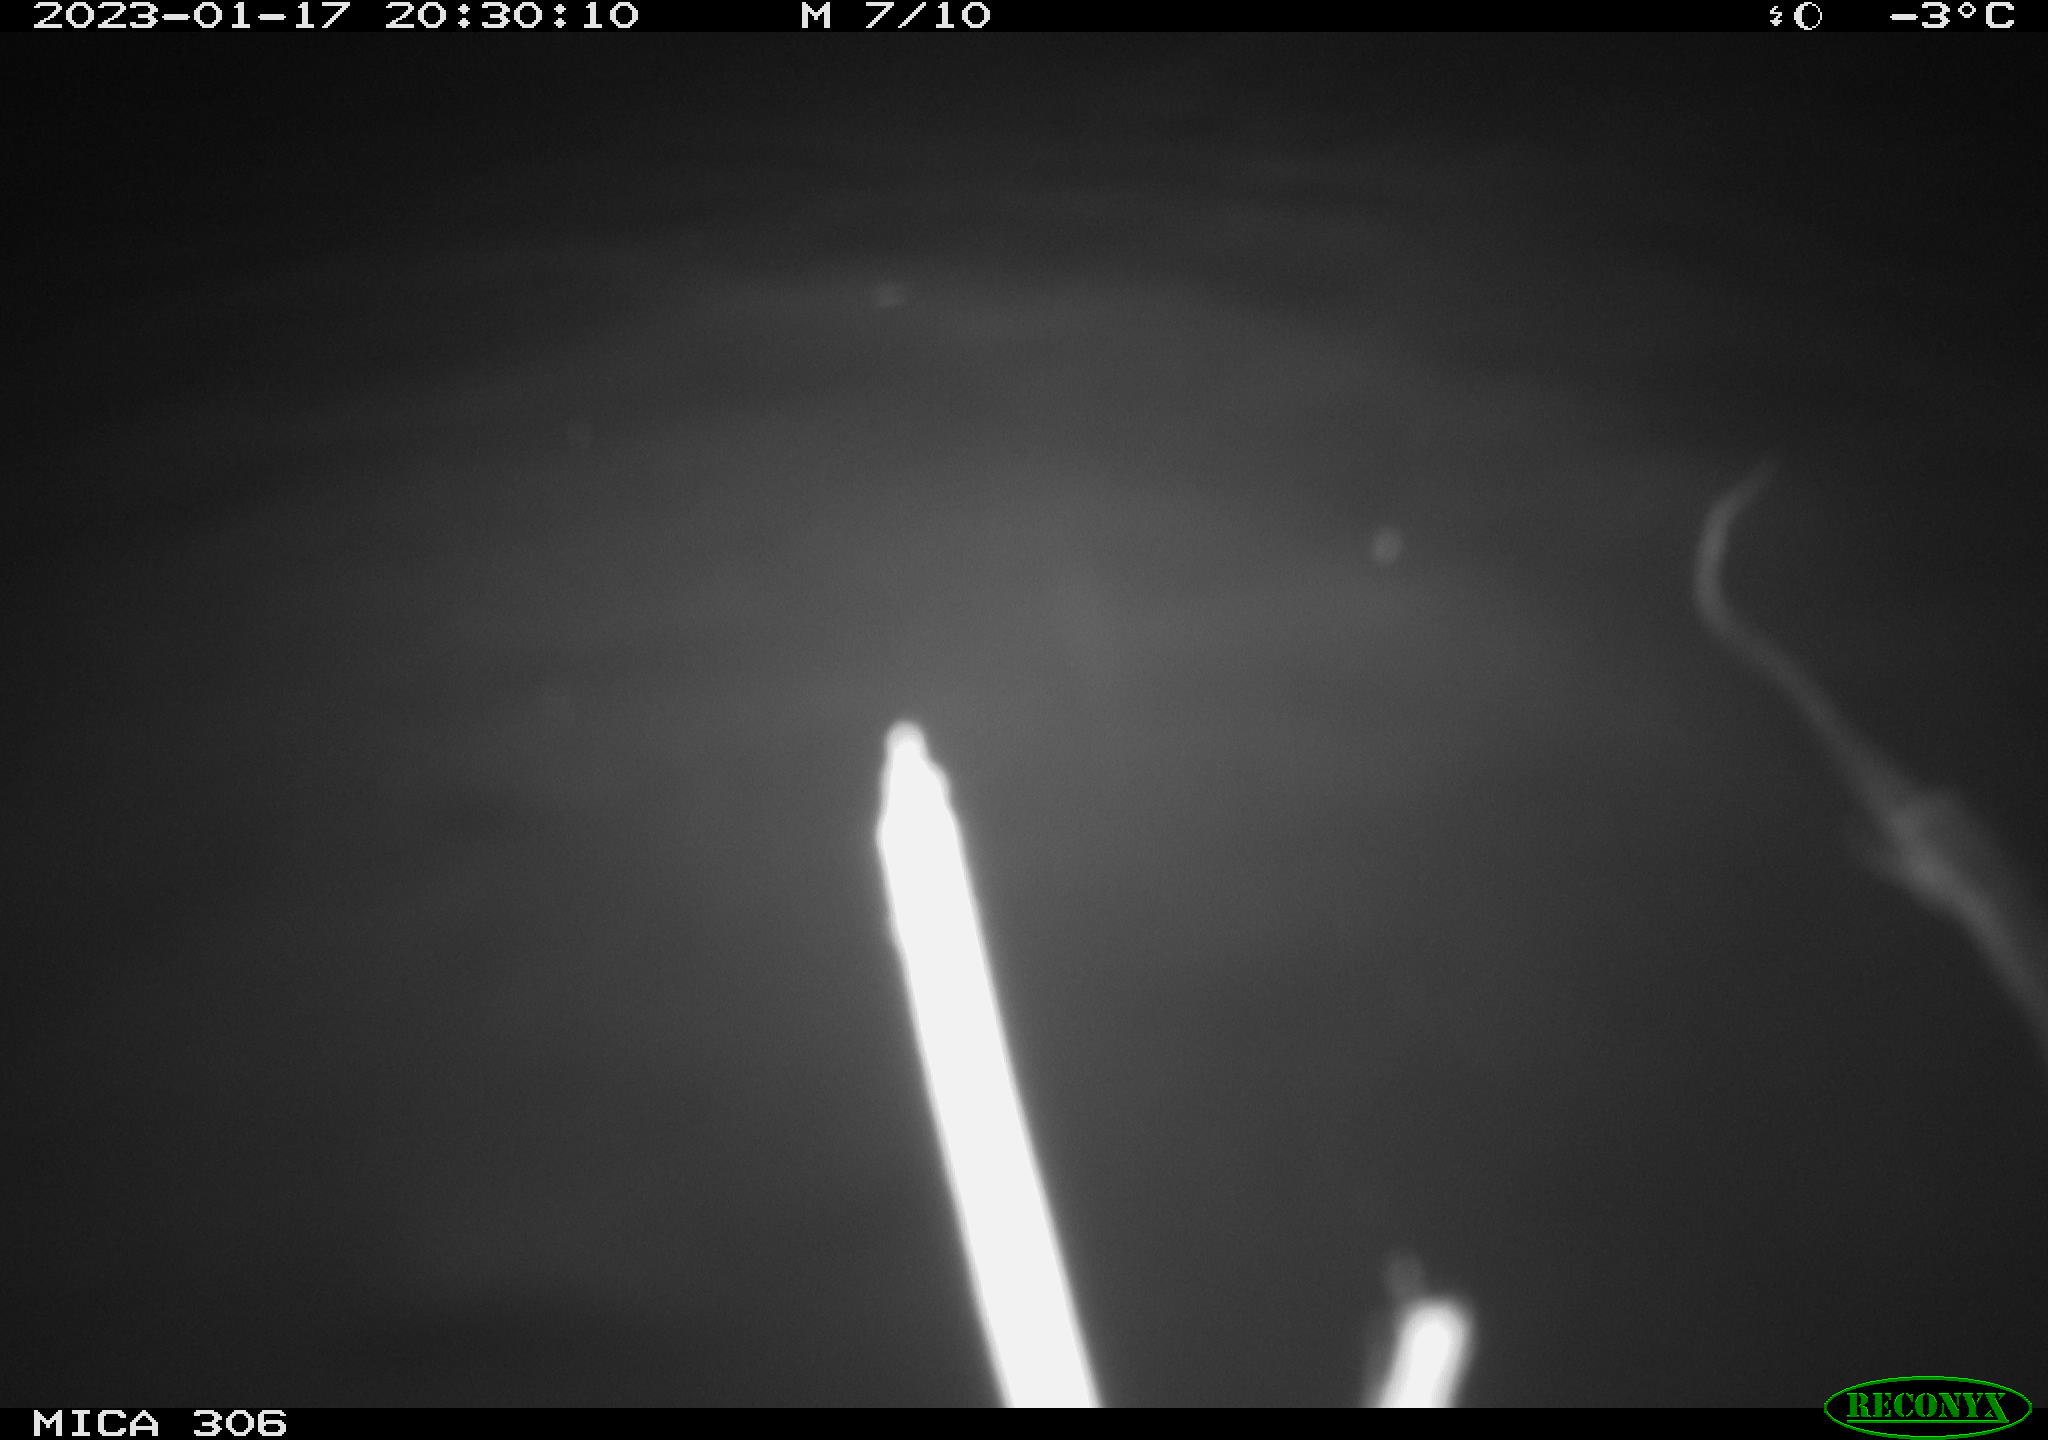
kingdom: Animalia
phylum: Chordata
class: Mammalia
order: Rodentia
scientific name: Rodentia
